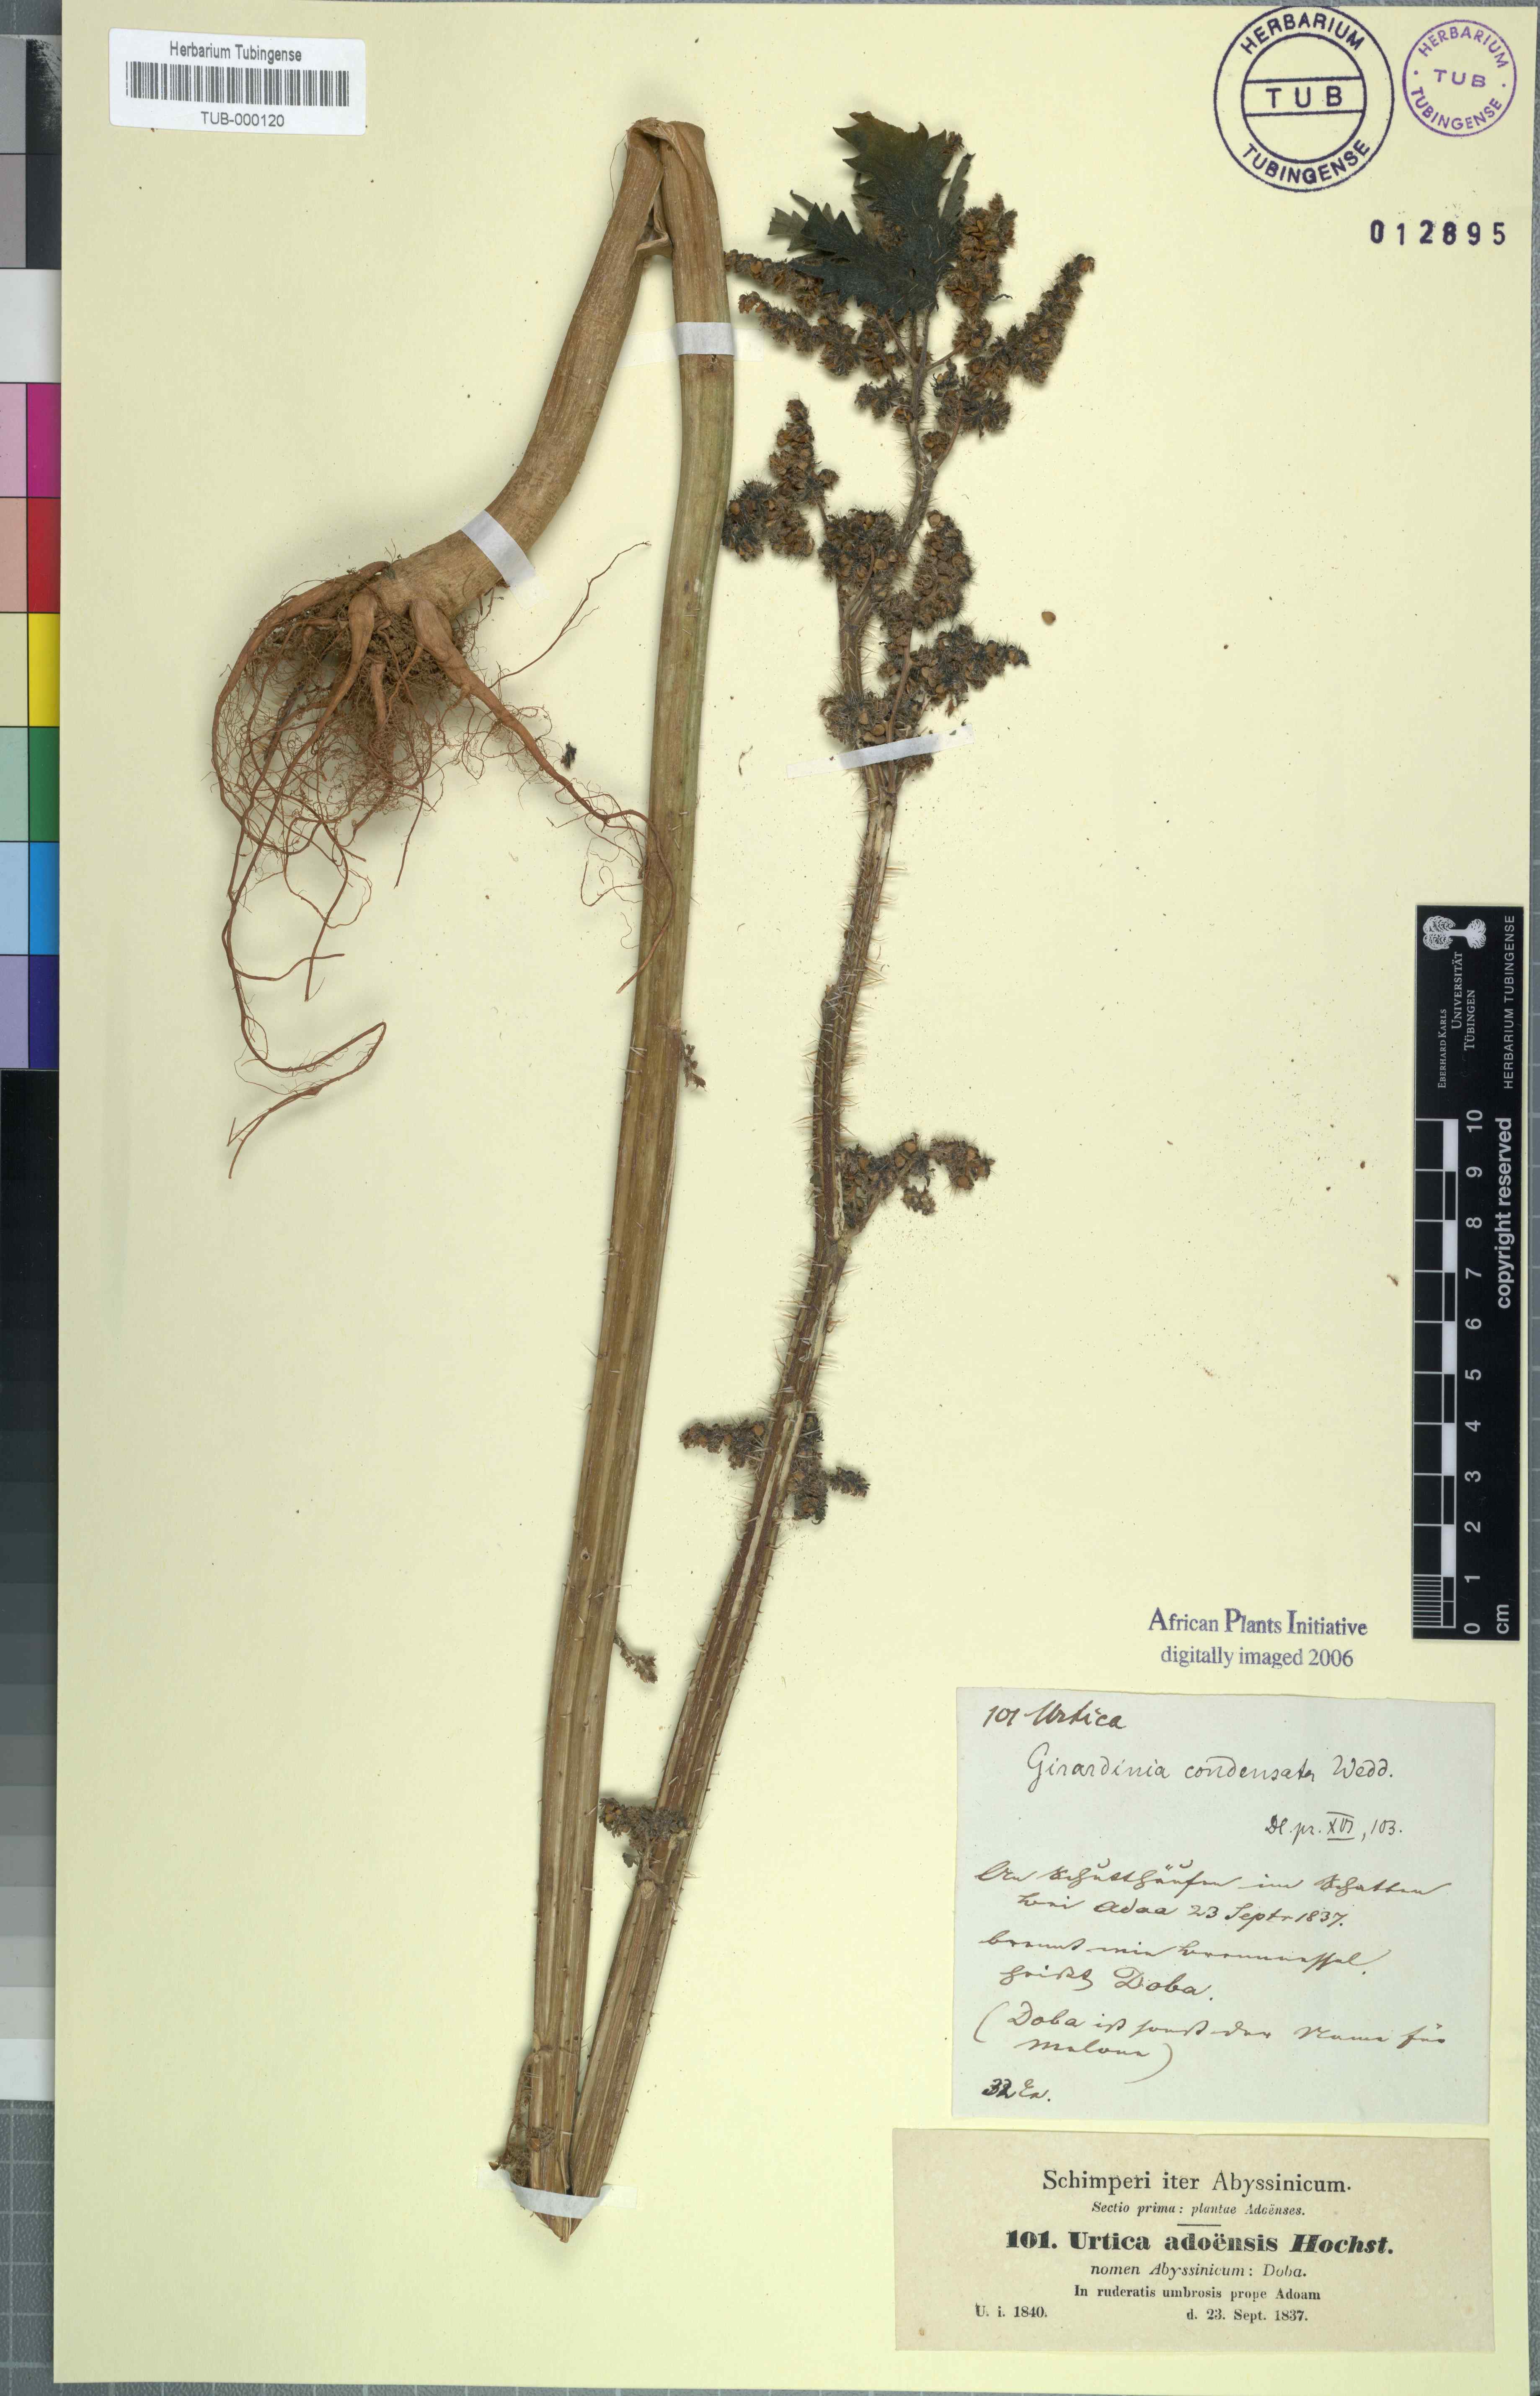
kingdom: Plantae
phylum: Tracheophyta
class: Magnoliopsida
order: Rosales
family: Urticaceae
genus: Girardinia
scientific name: Girardinia diversifolia
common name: Himalayan-nettle
